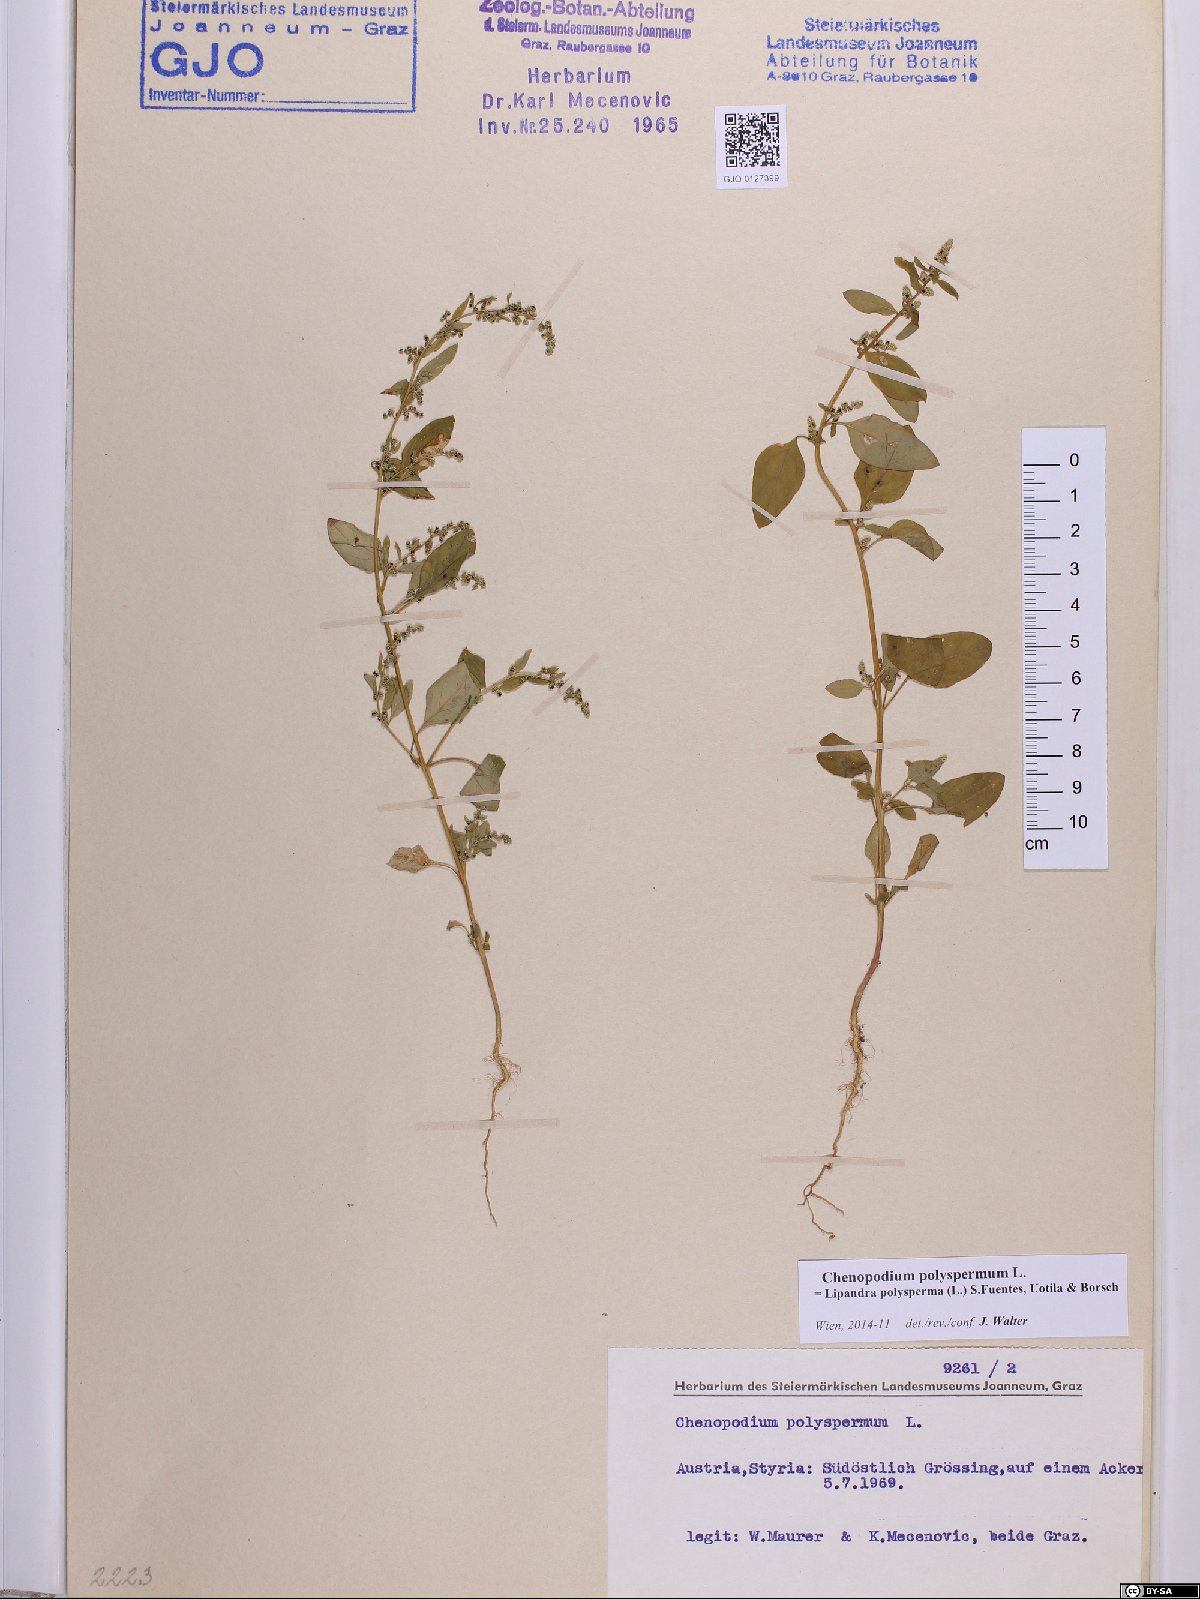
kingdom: Plantae
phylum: Tracheophyta
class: Magnoliopsida
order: Caryophyllales
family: Amaranthaceae
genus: Lipandra
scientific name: Lipandra polysperma
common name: Many-seed goosefoot
